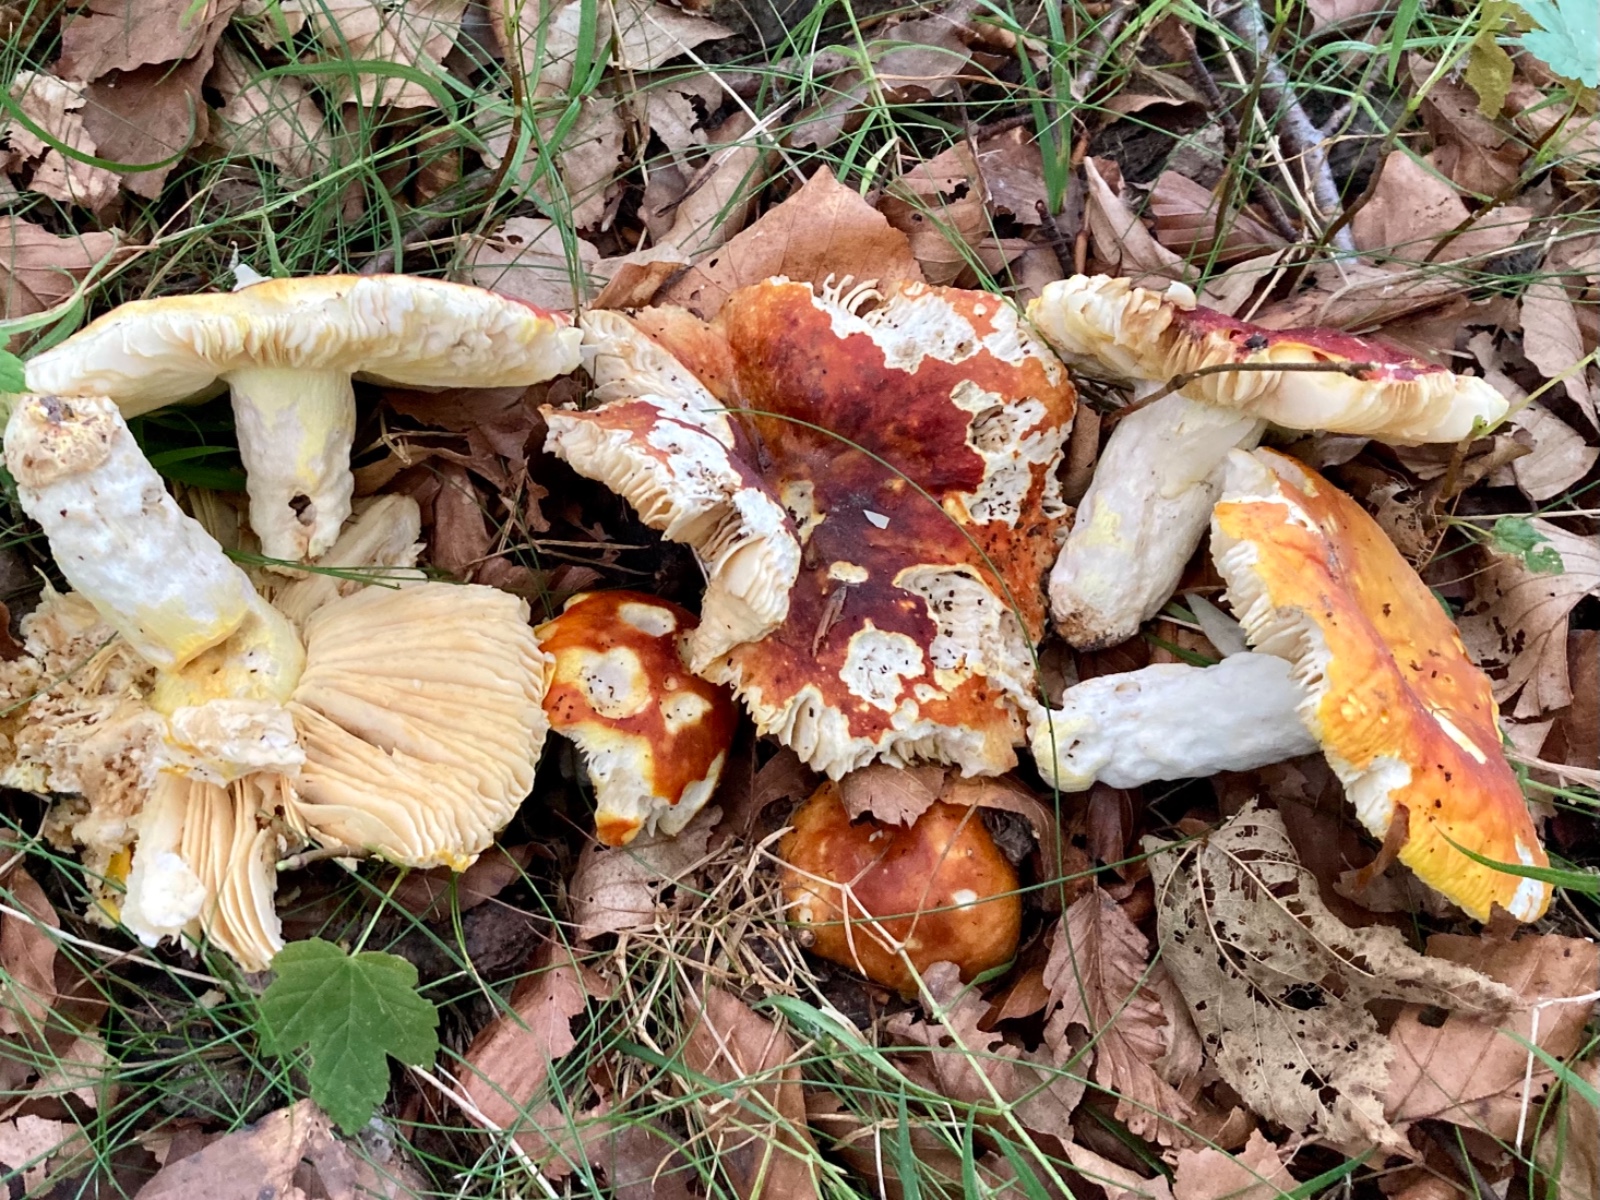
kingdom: Fungi
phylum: Basidiomycota
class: Agaricomycetes
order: Russulales
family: Russulaceae
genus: Russula
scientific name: Russula aurea
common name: gylden skørhat
